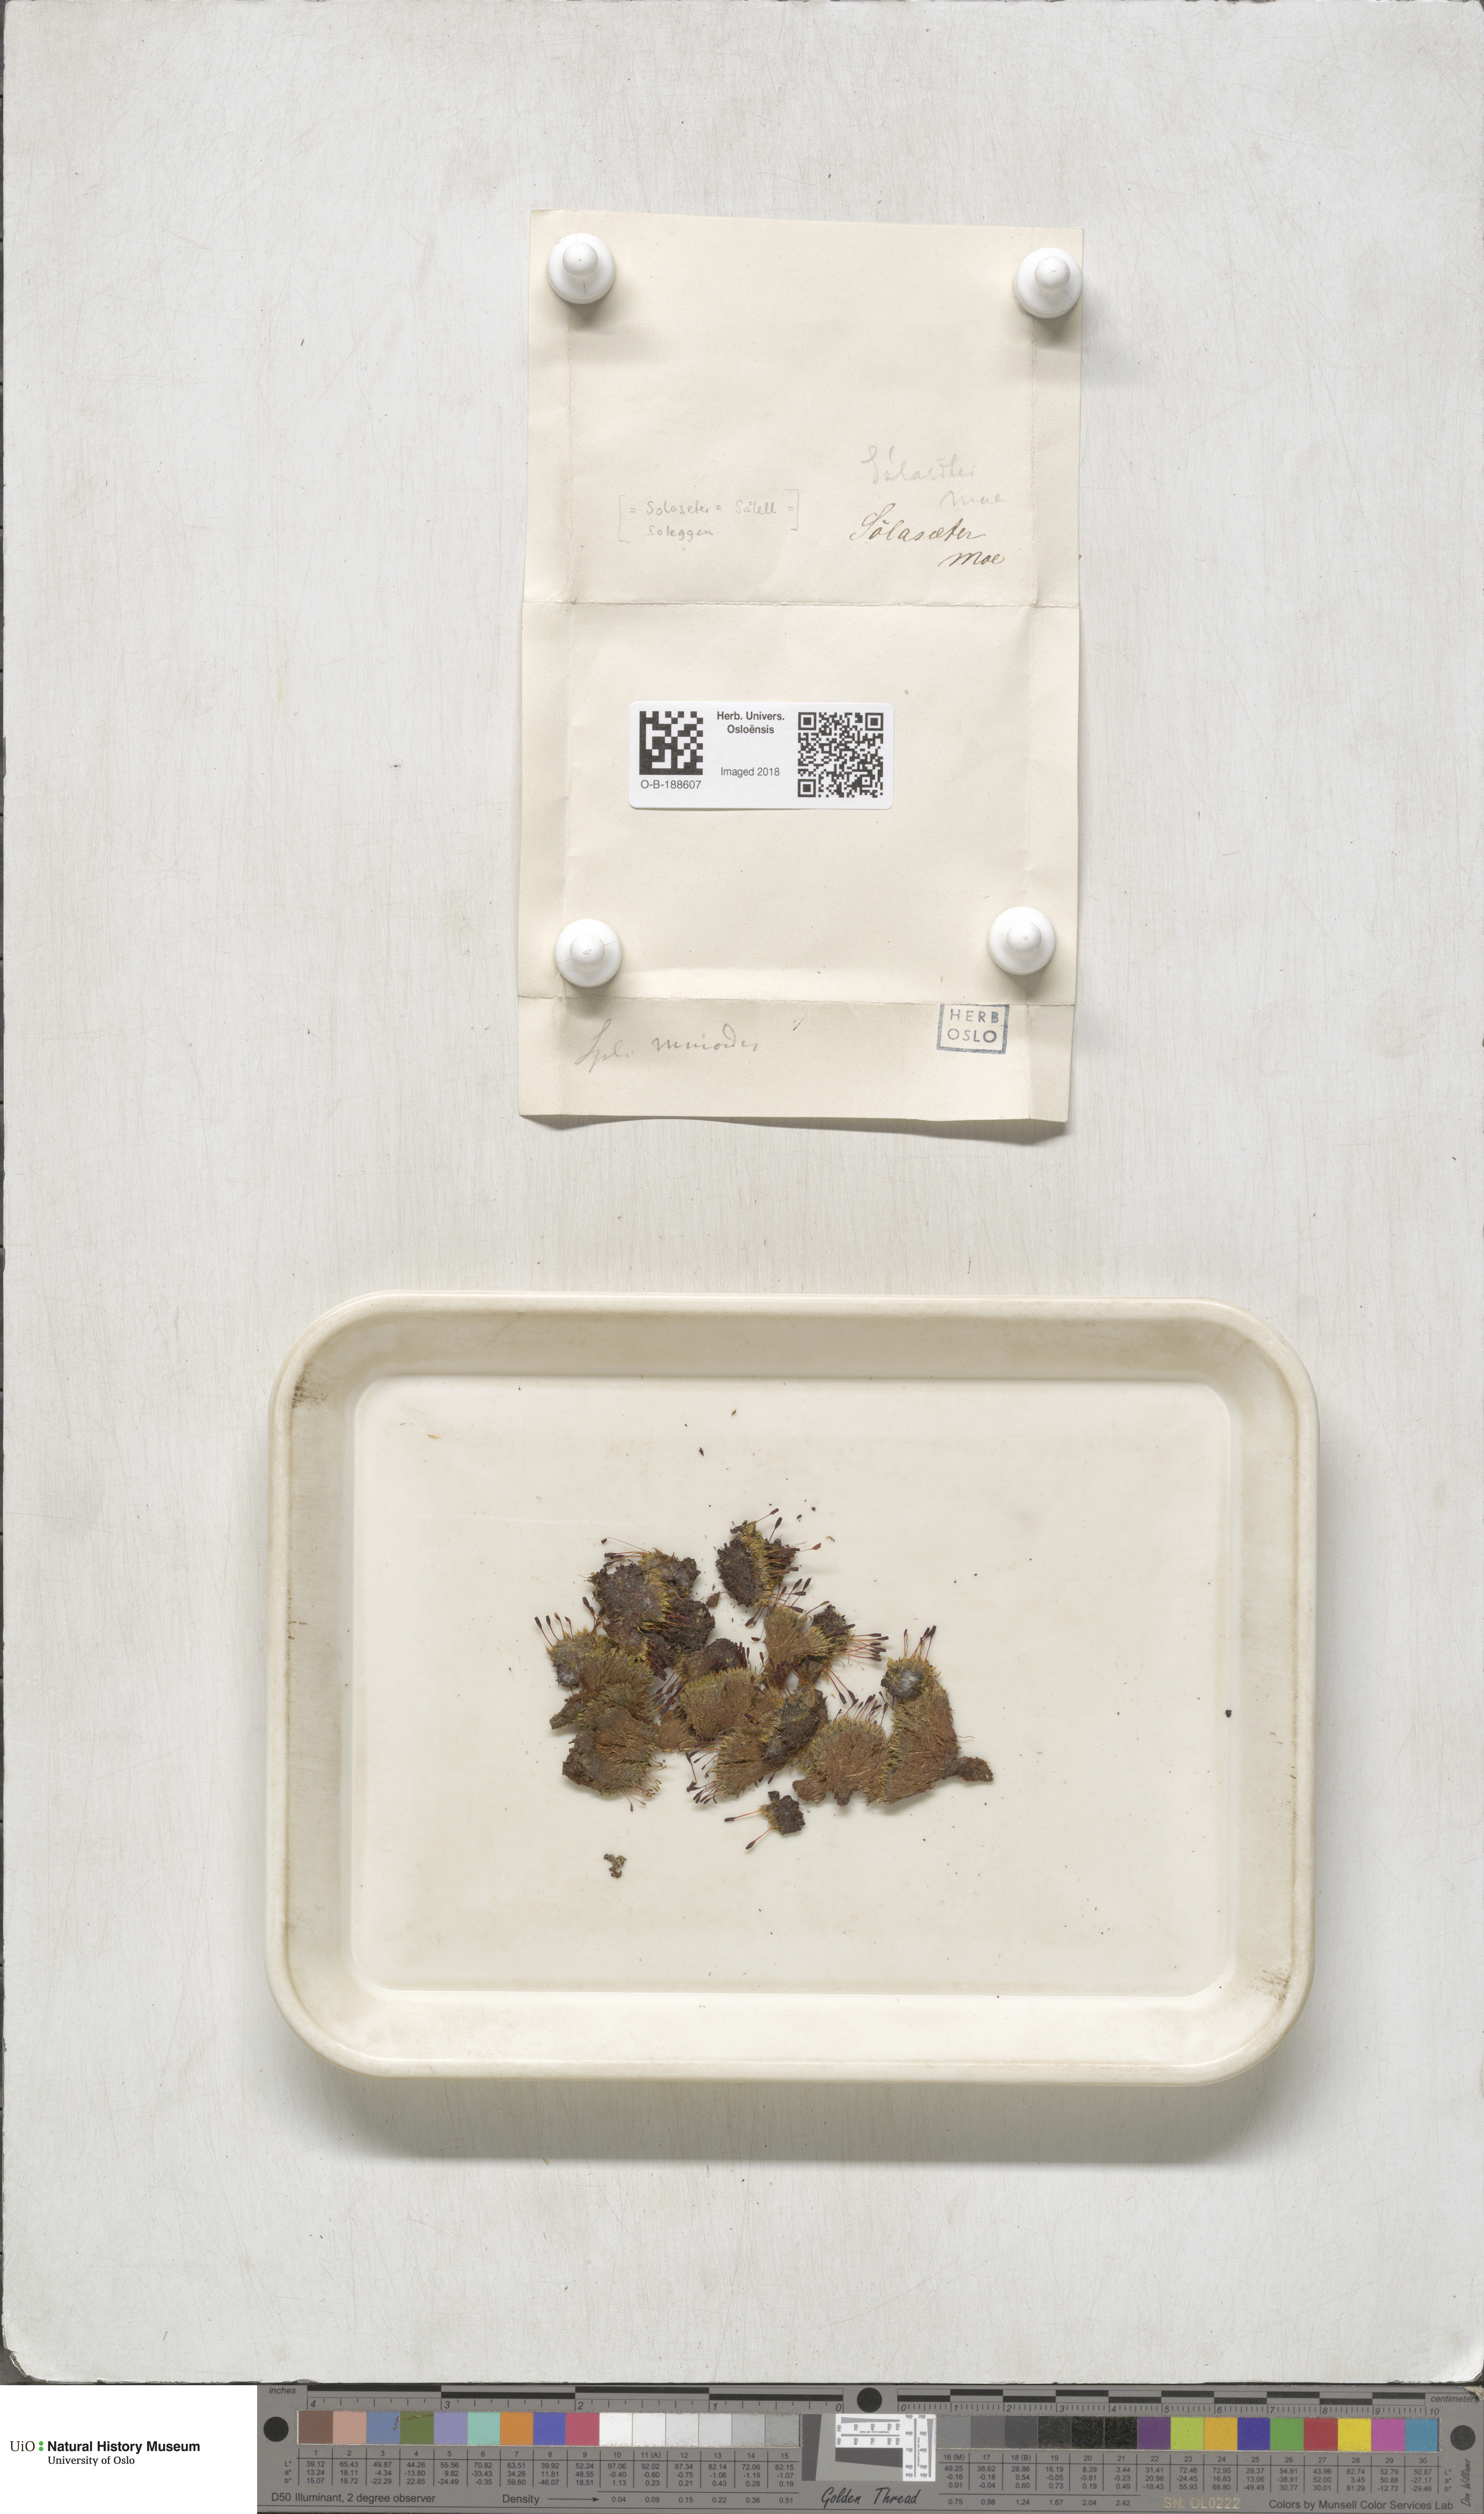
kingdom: Plantae
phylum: Bryophyta
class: Bryopsida
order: Splachnales
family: Splachnaceae
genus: Tetraplodon
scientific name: Tetraplodon mnioides
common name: Entire-leaved nitrogen moss
